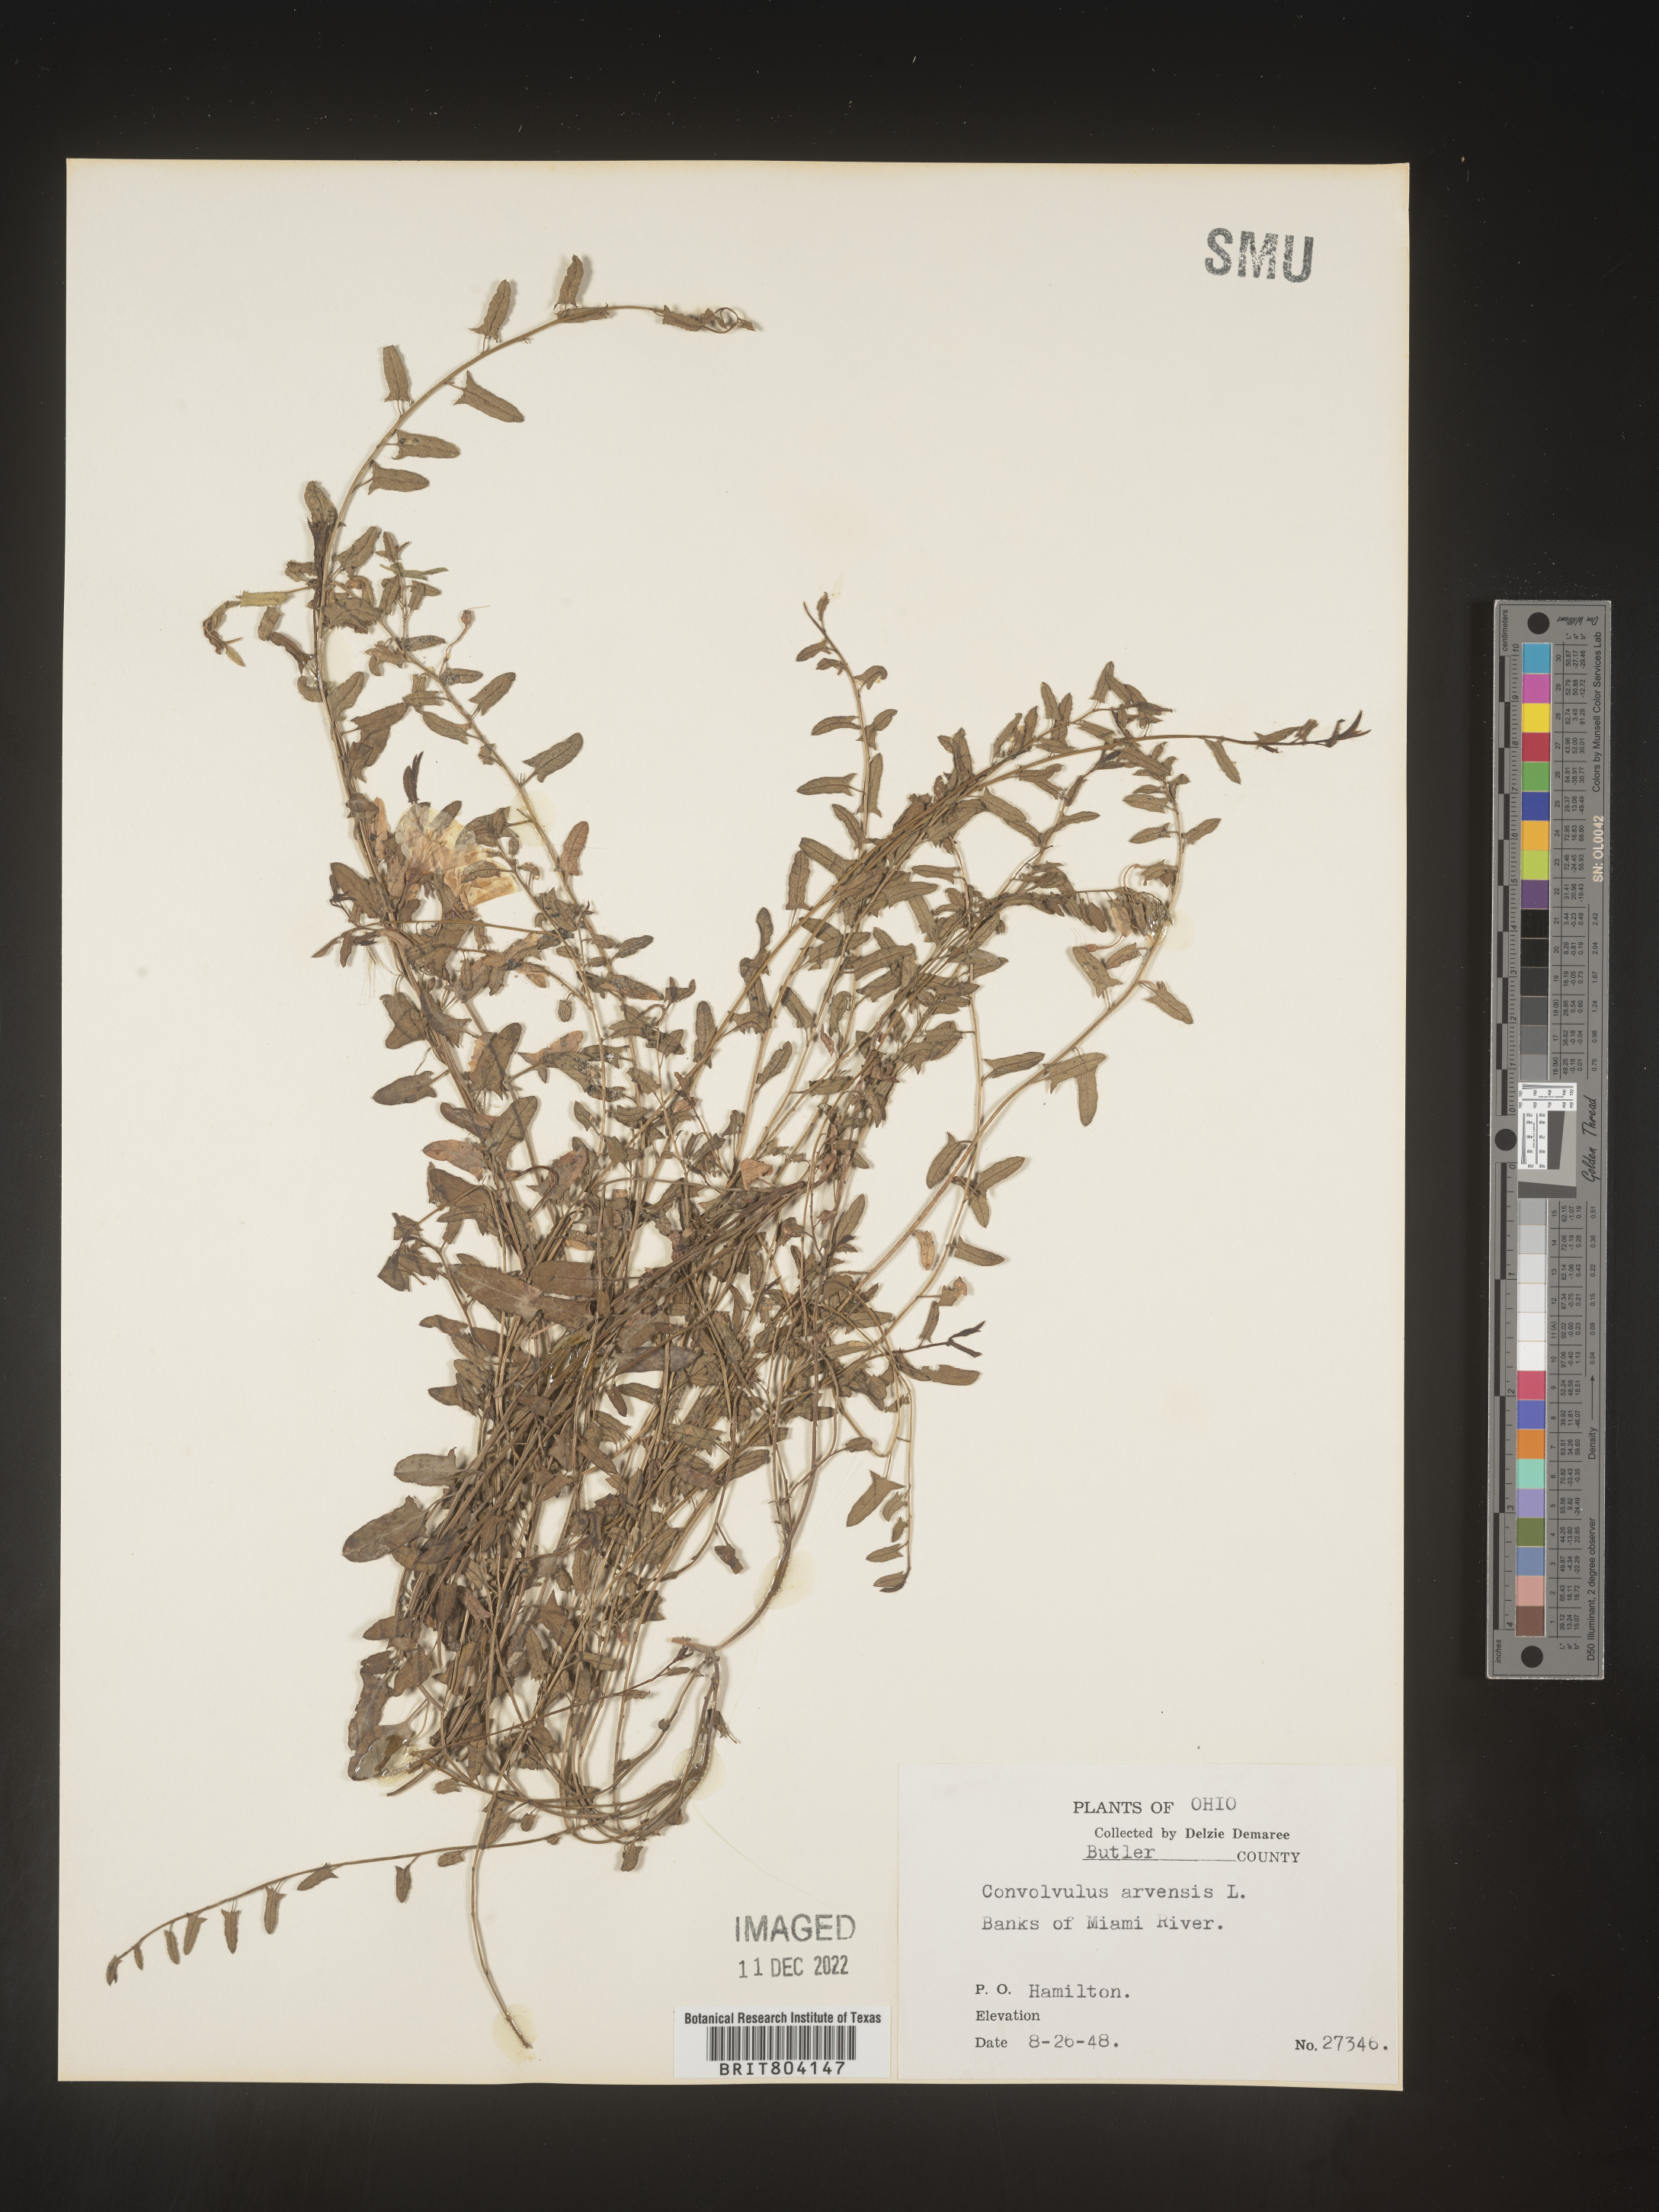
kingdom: Plantae
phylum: Tracheophyta
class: Magnoliopsida
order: Solanales
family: Convolvulaceae
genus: Convolvulus
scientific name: Convolvulus arvensis
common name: Field bindweed
